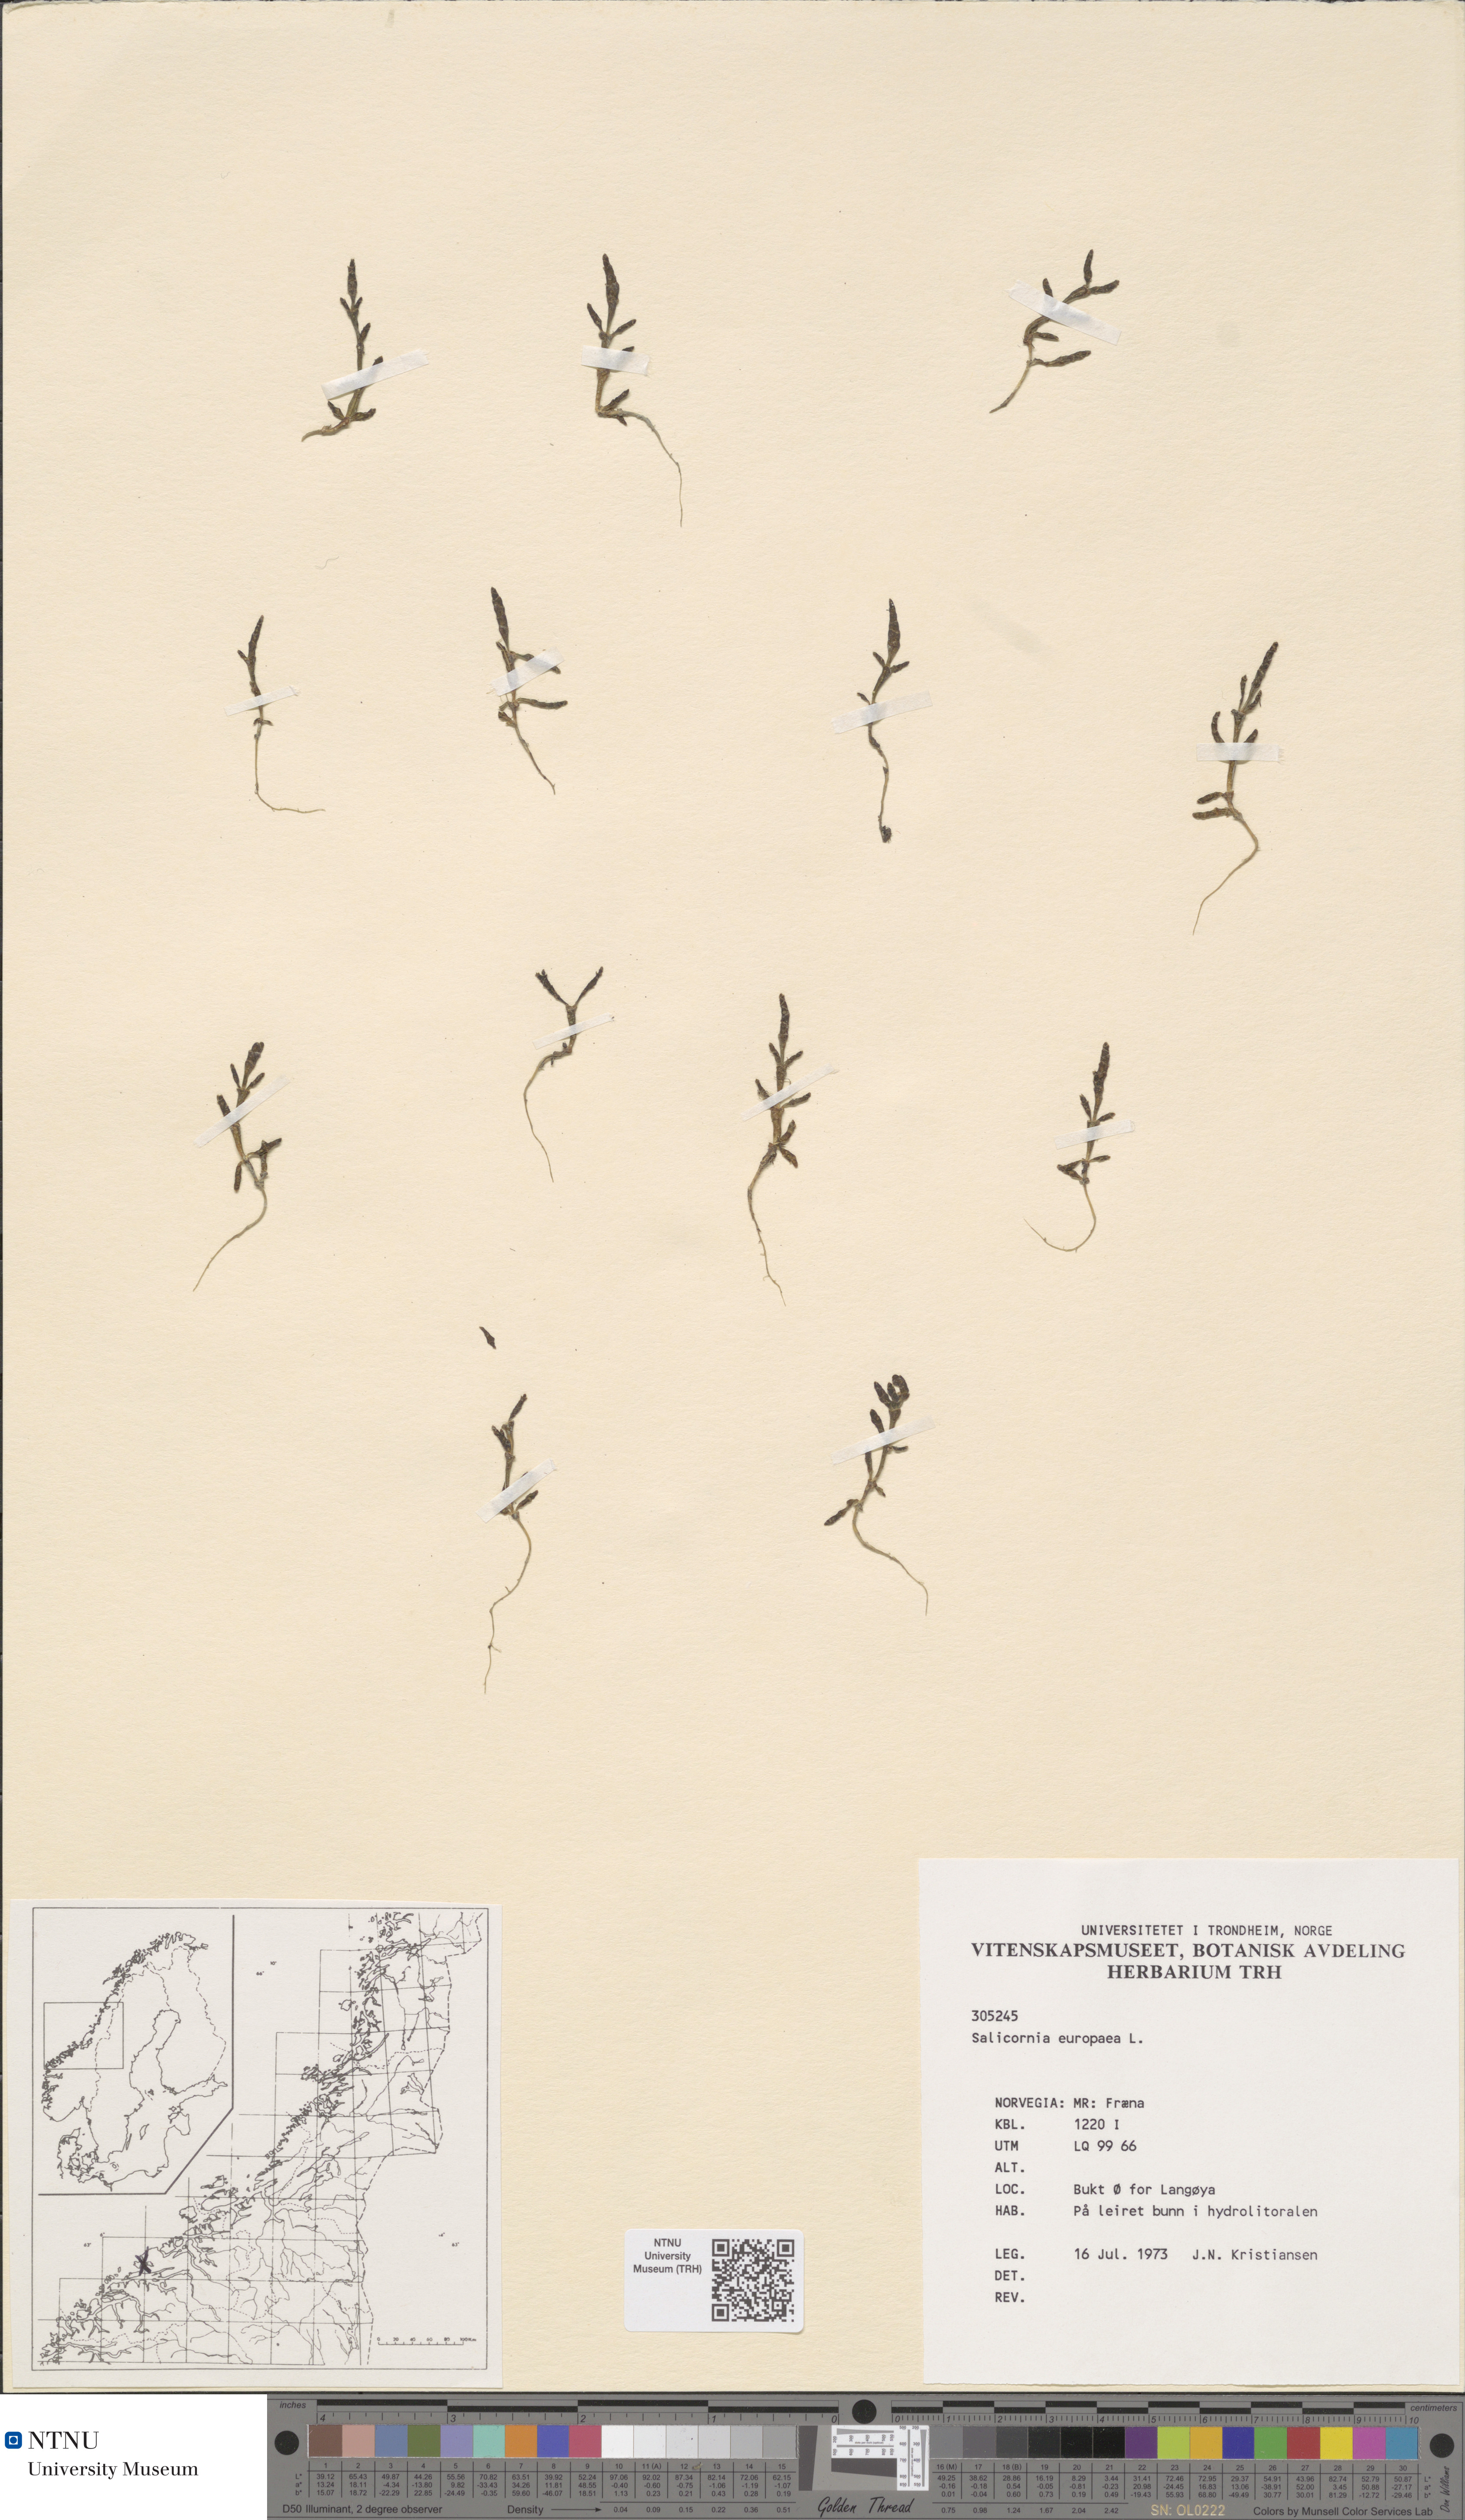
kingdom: Plantae
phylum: Tracheophyta
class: Magnoliopsida
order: Caryophyllales
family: Amaranthaceae
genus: Salicornia
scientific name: Salicornia europaea
